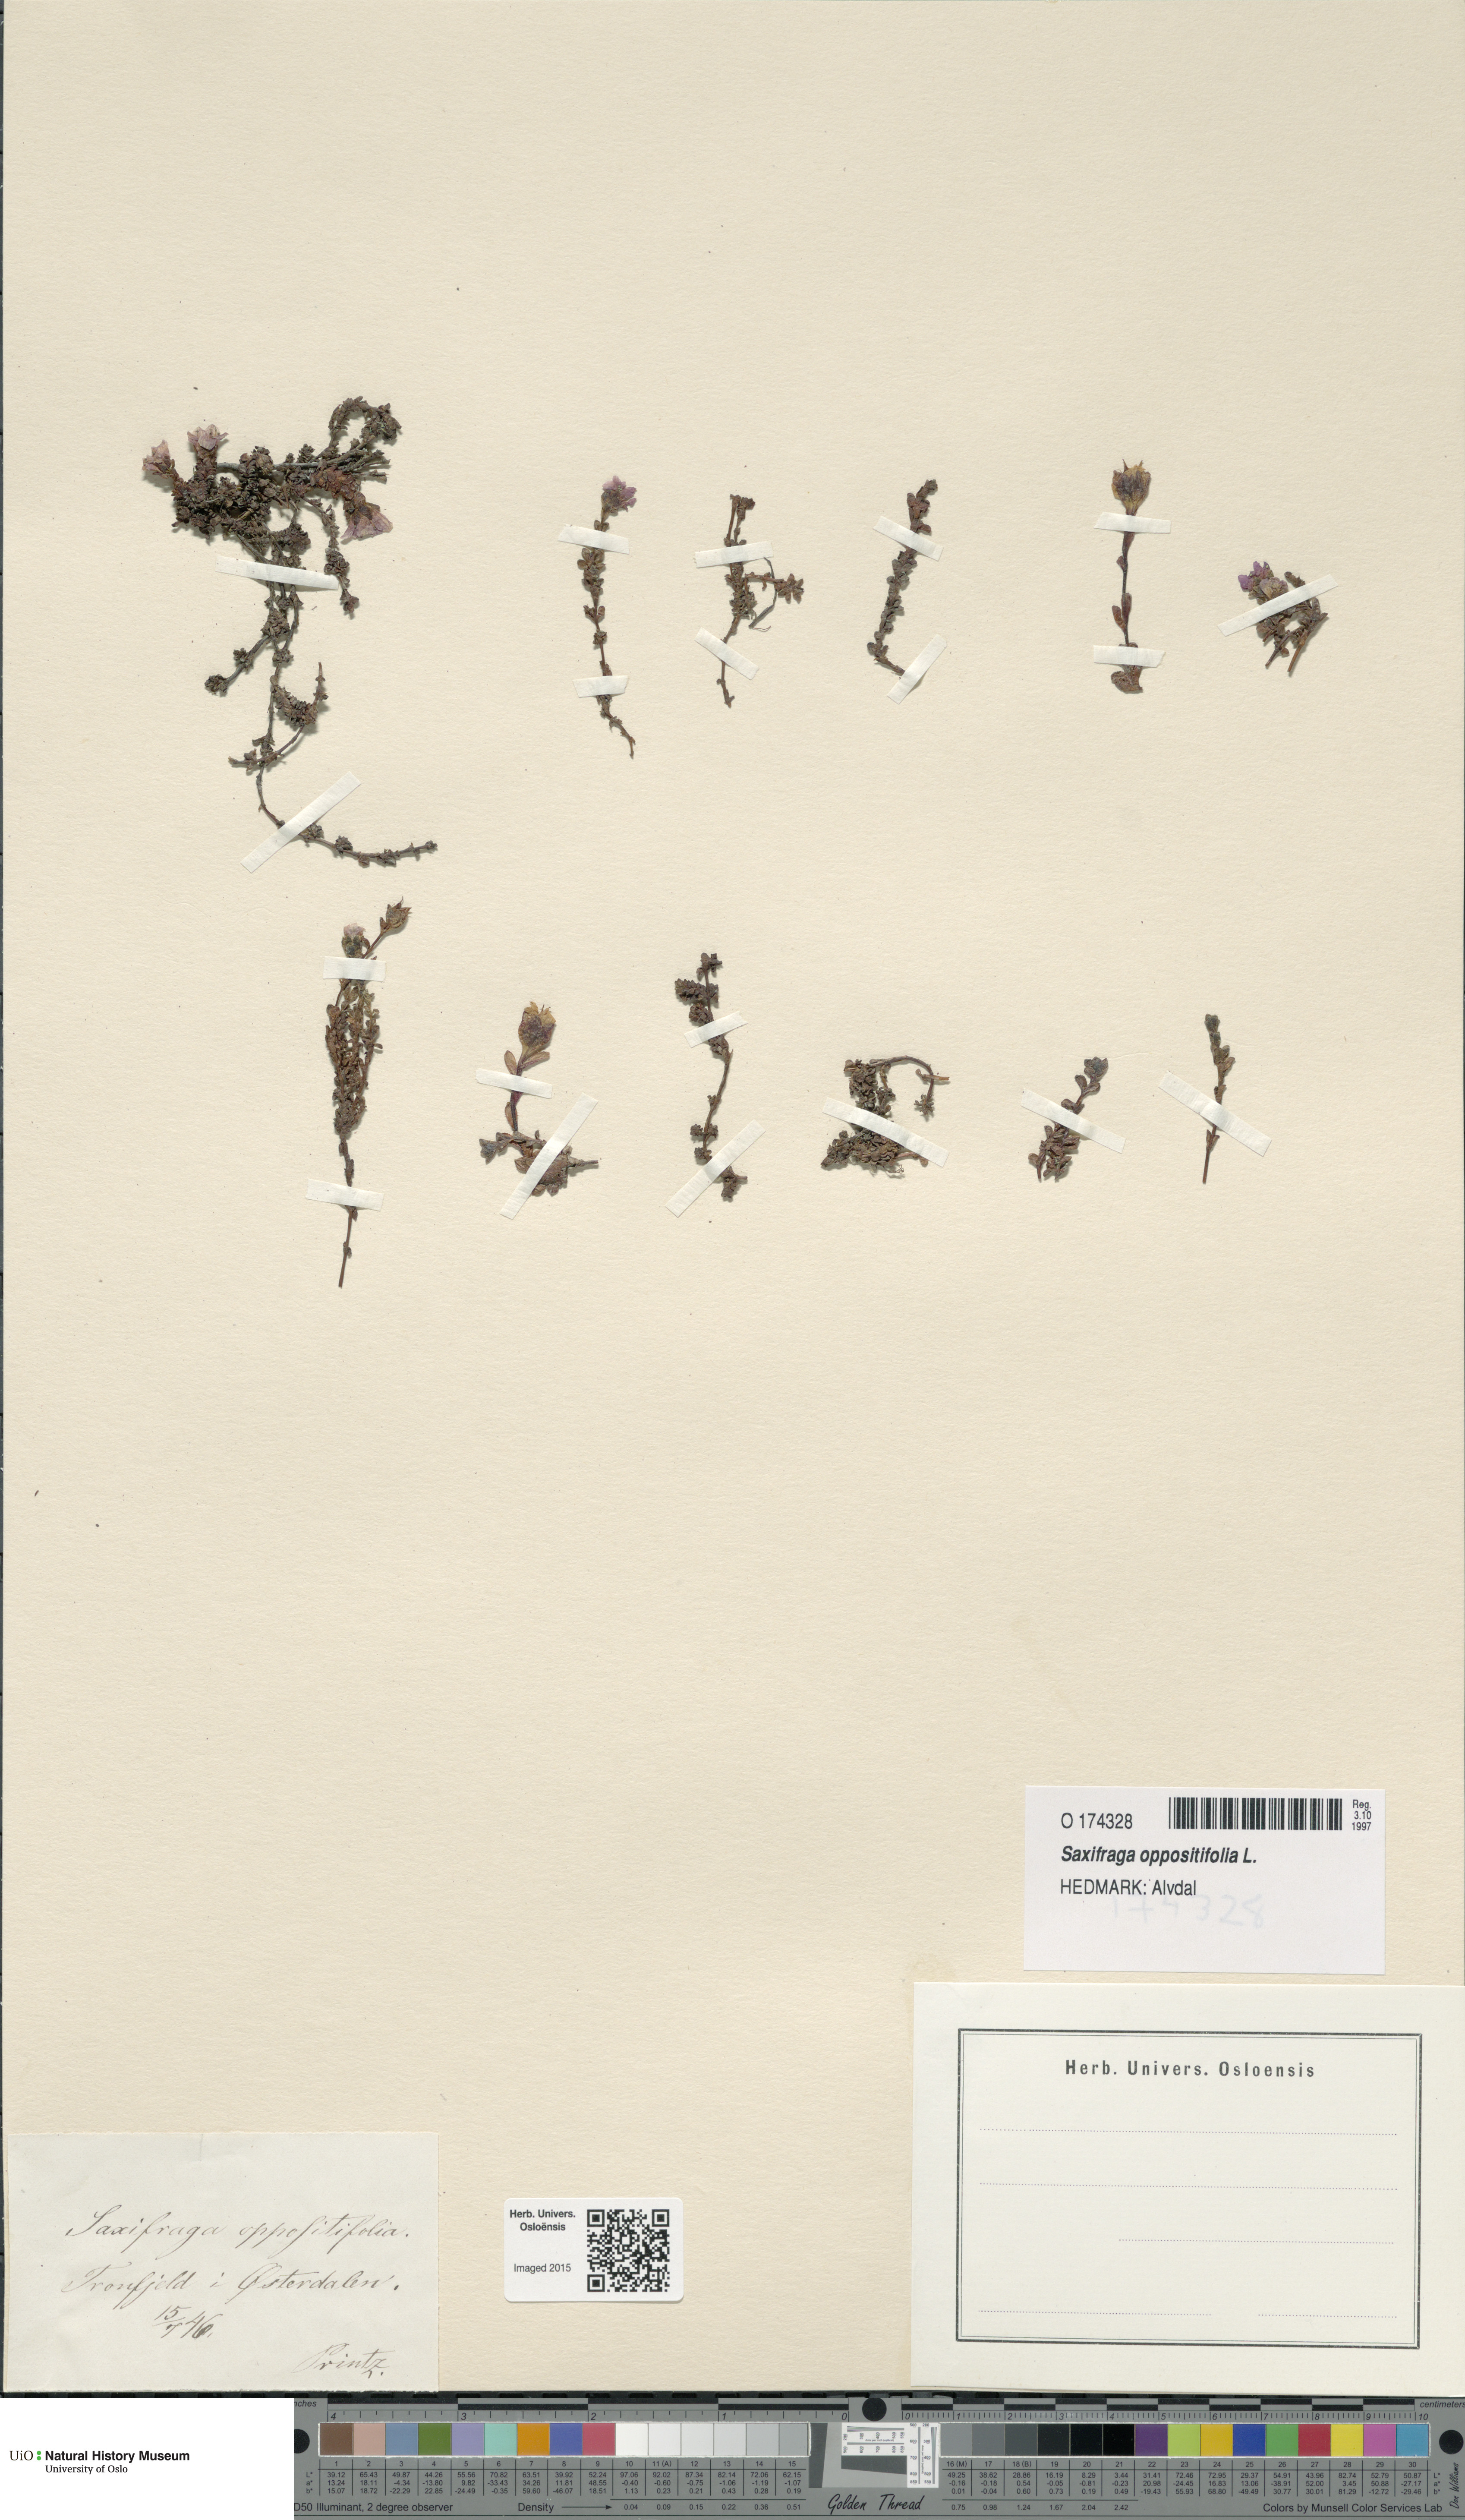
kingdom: Plantae
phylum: Tracheophyta
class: Magnoliopsida
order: Saxifragales
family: Saxifragaceae
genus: Saxifraga
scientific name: Saxifraga oppositifolia
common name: Purple saxifrage
